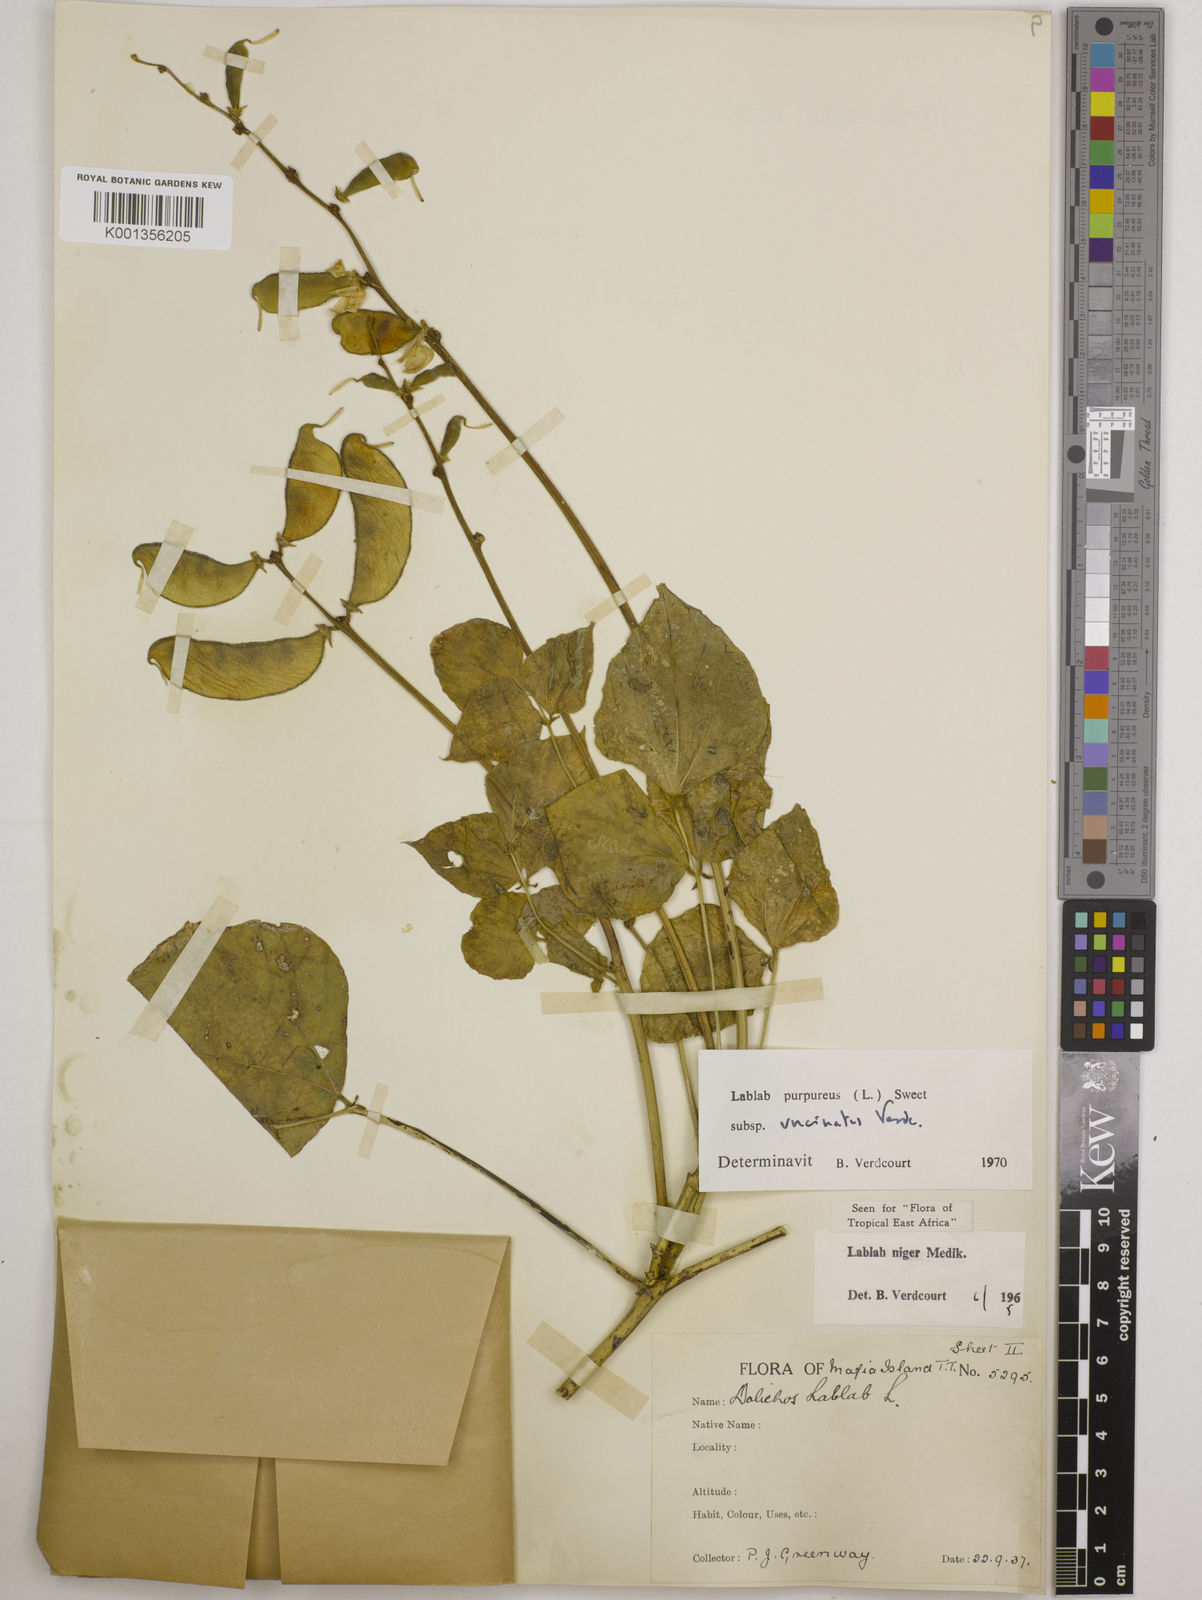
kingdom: Plantae
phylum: Tracheophyta
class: Magnoliopsida
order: Fabales
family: Fabaceae
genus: Lablab
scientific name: Lablab purpureus
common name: Lablab-bean
